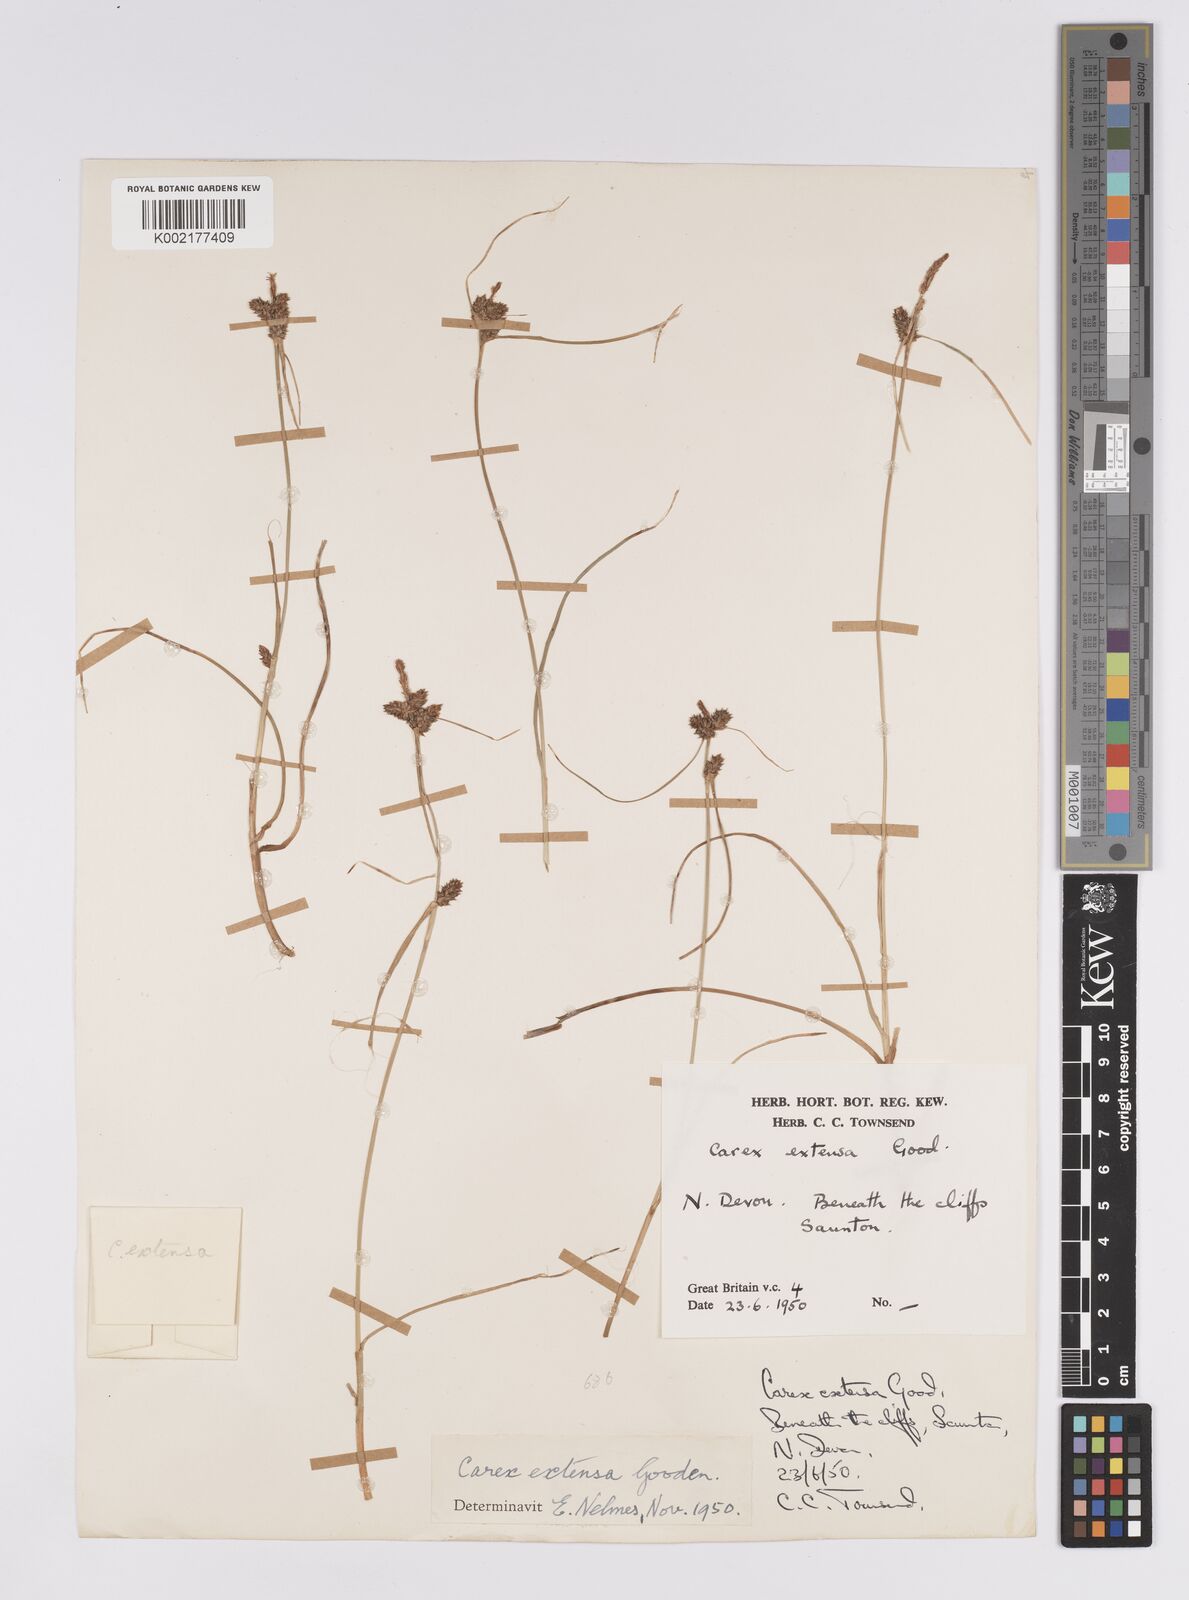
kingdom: Plantae
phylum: Tracheophyta
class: Liliopsida
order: Poales
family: Cyperaceae
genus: Carex
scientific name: Carex extensa
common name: Long-bracted sedge
